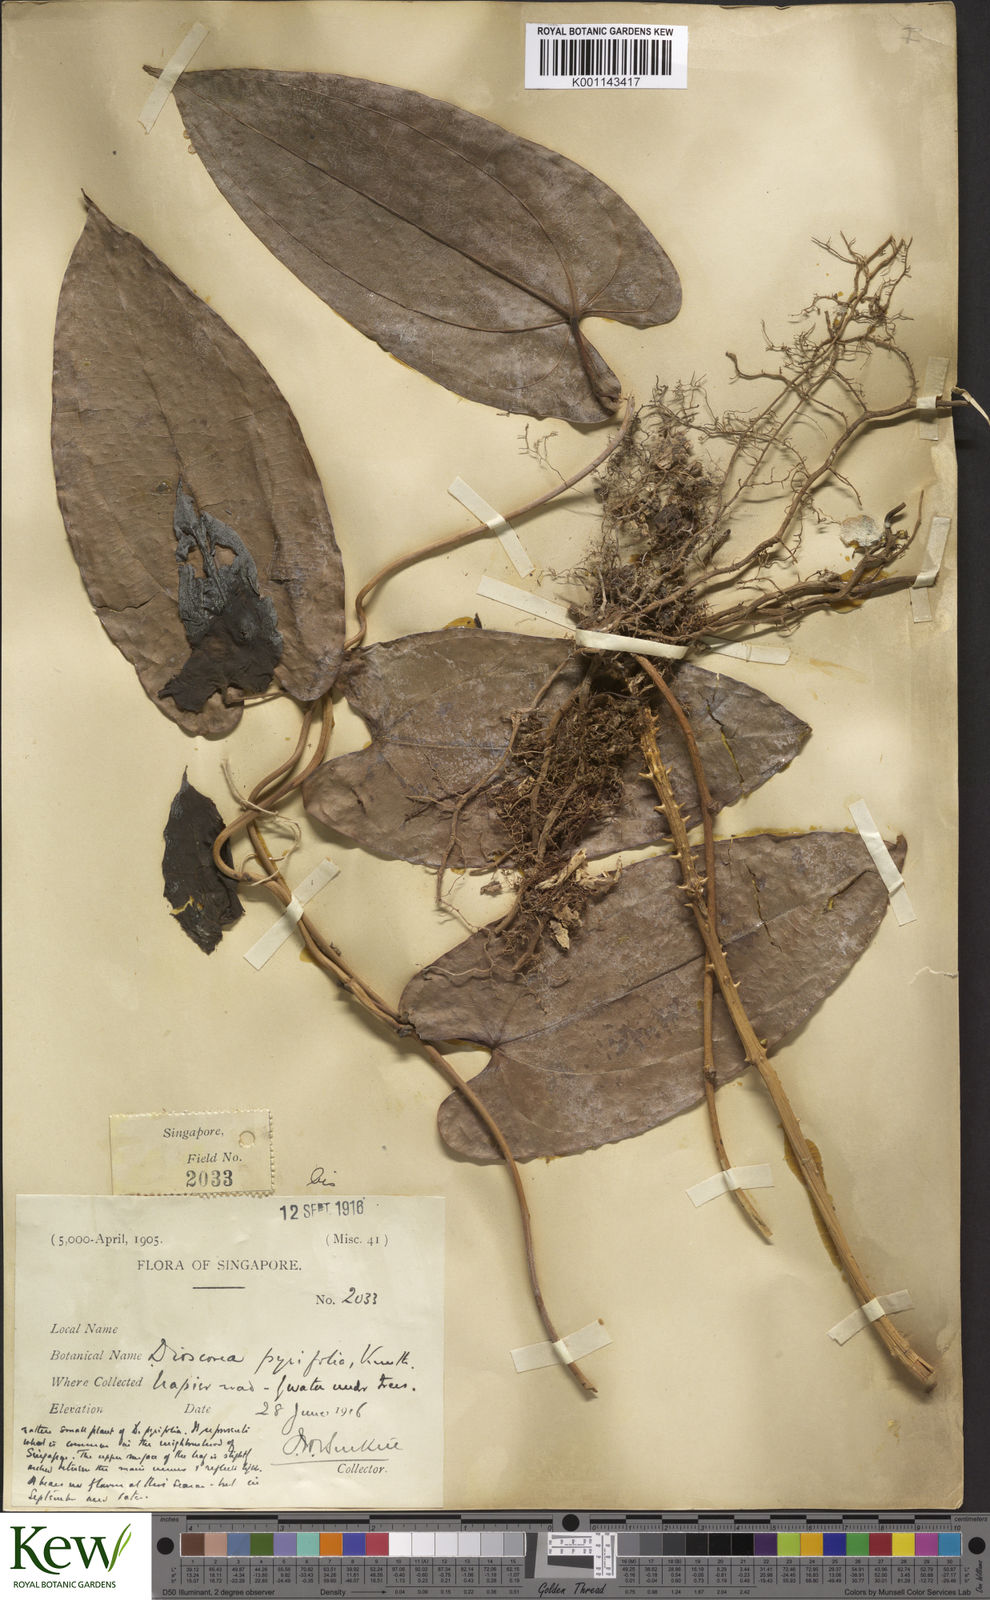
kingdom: Plantae
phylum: Tracheophyta
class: Liliopsida
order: Dioscoreales
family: Dioscoreaceae
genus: Dioscorea
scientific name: Dioscorea pyrifolia
